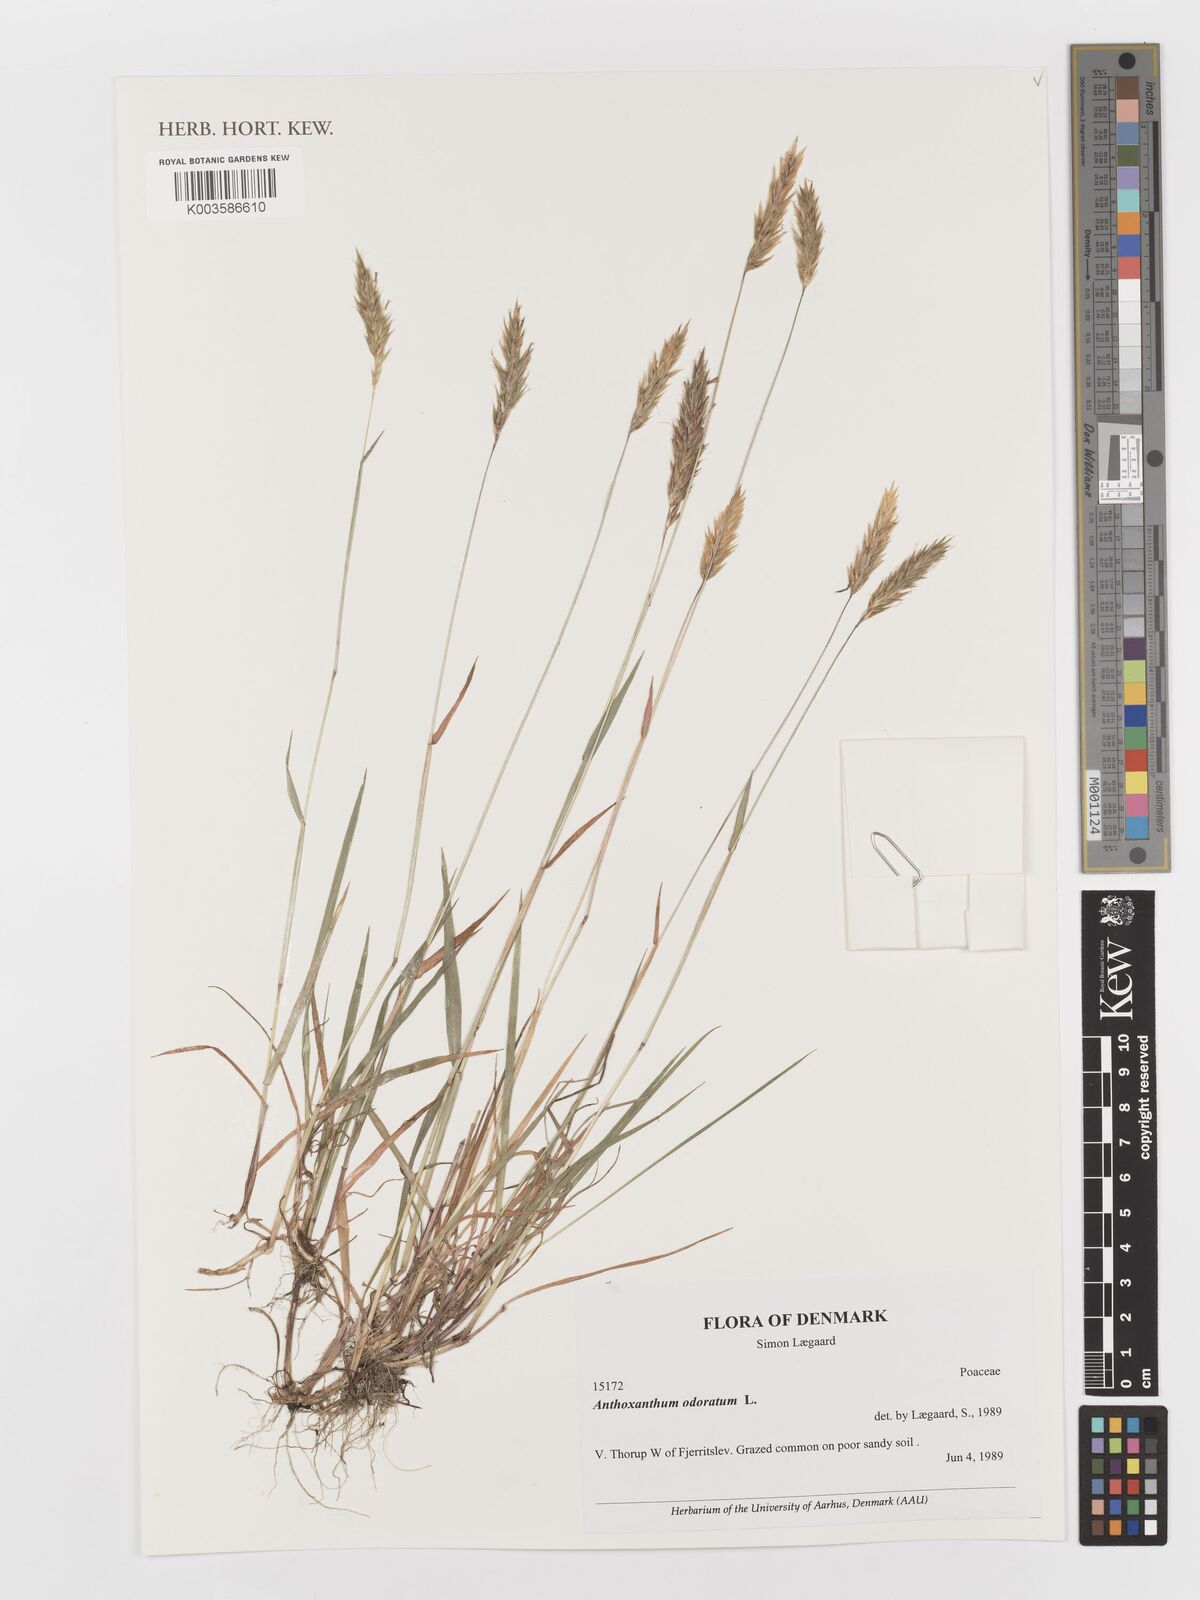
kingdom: Plantae
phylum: Tracheophyta
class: Liliopsida
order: Poales
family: Poaceae
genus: Anthoxanthum
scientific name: Anthoxanthum odoratum
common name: Sweet vernalgrass
